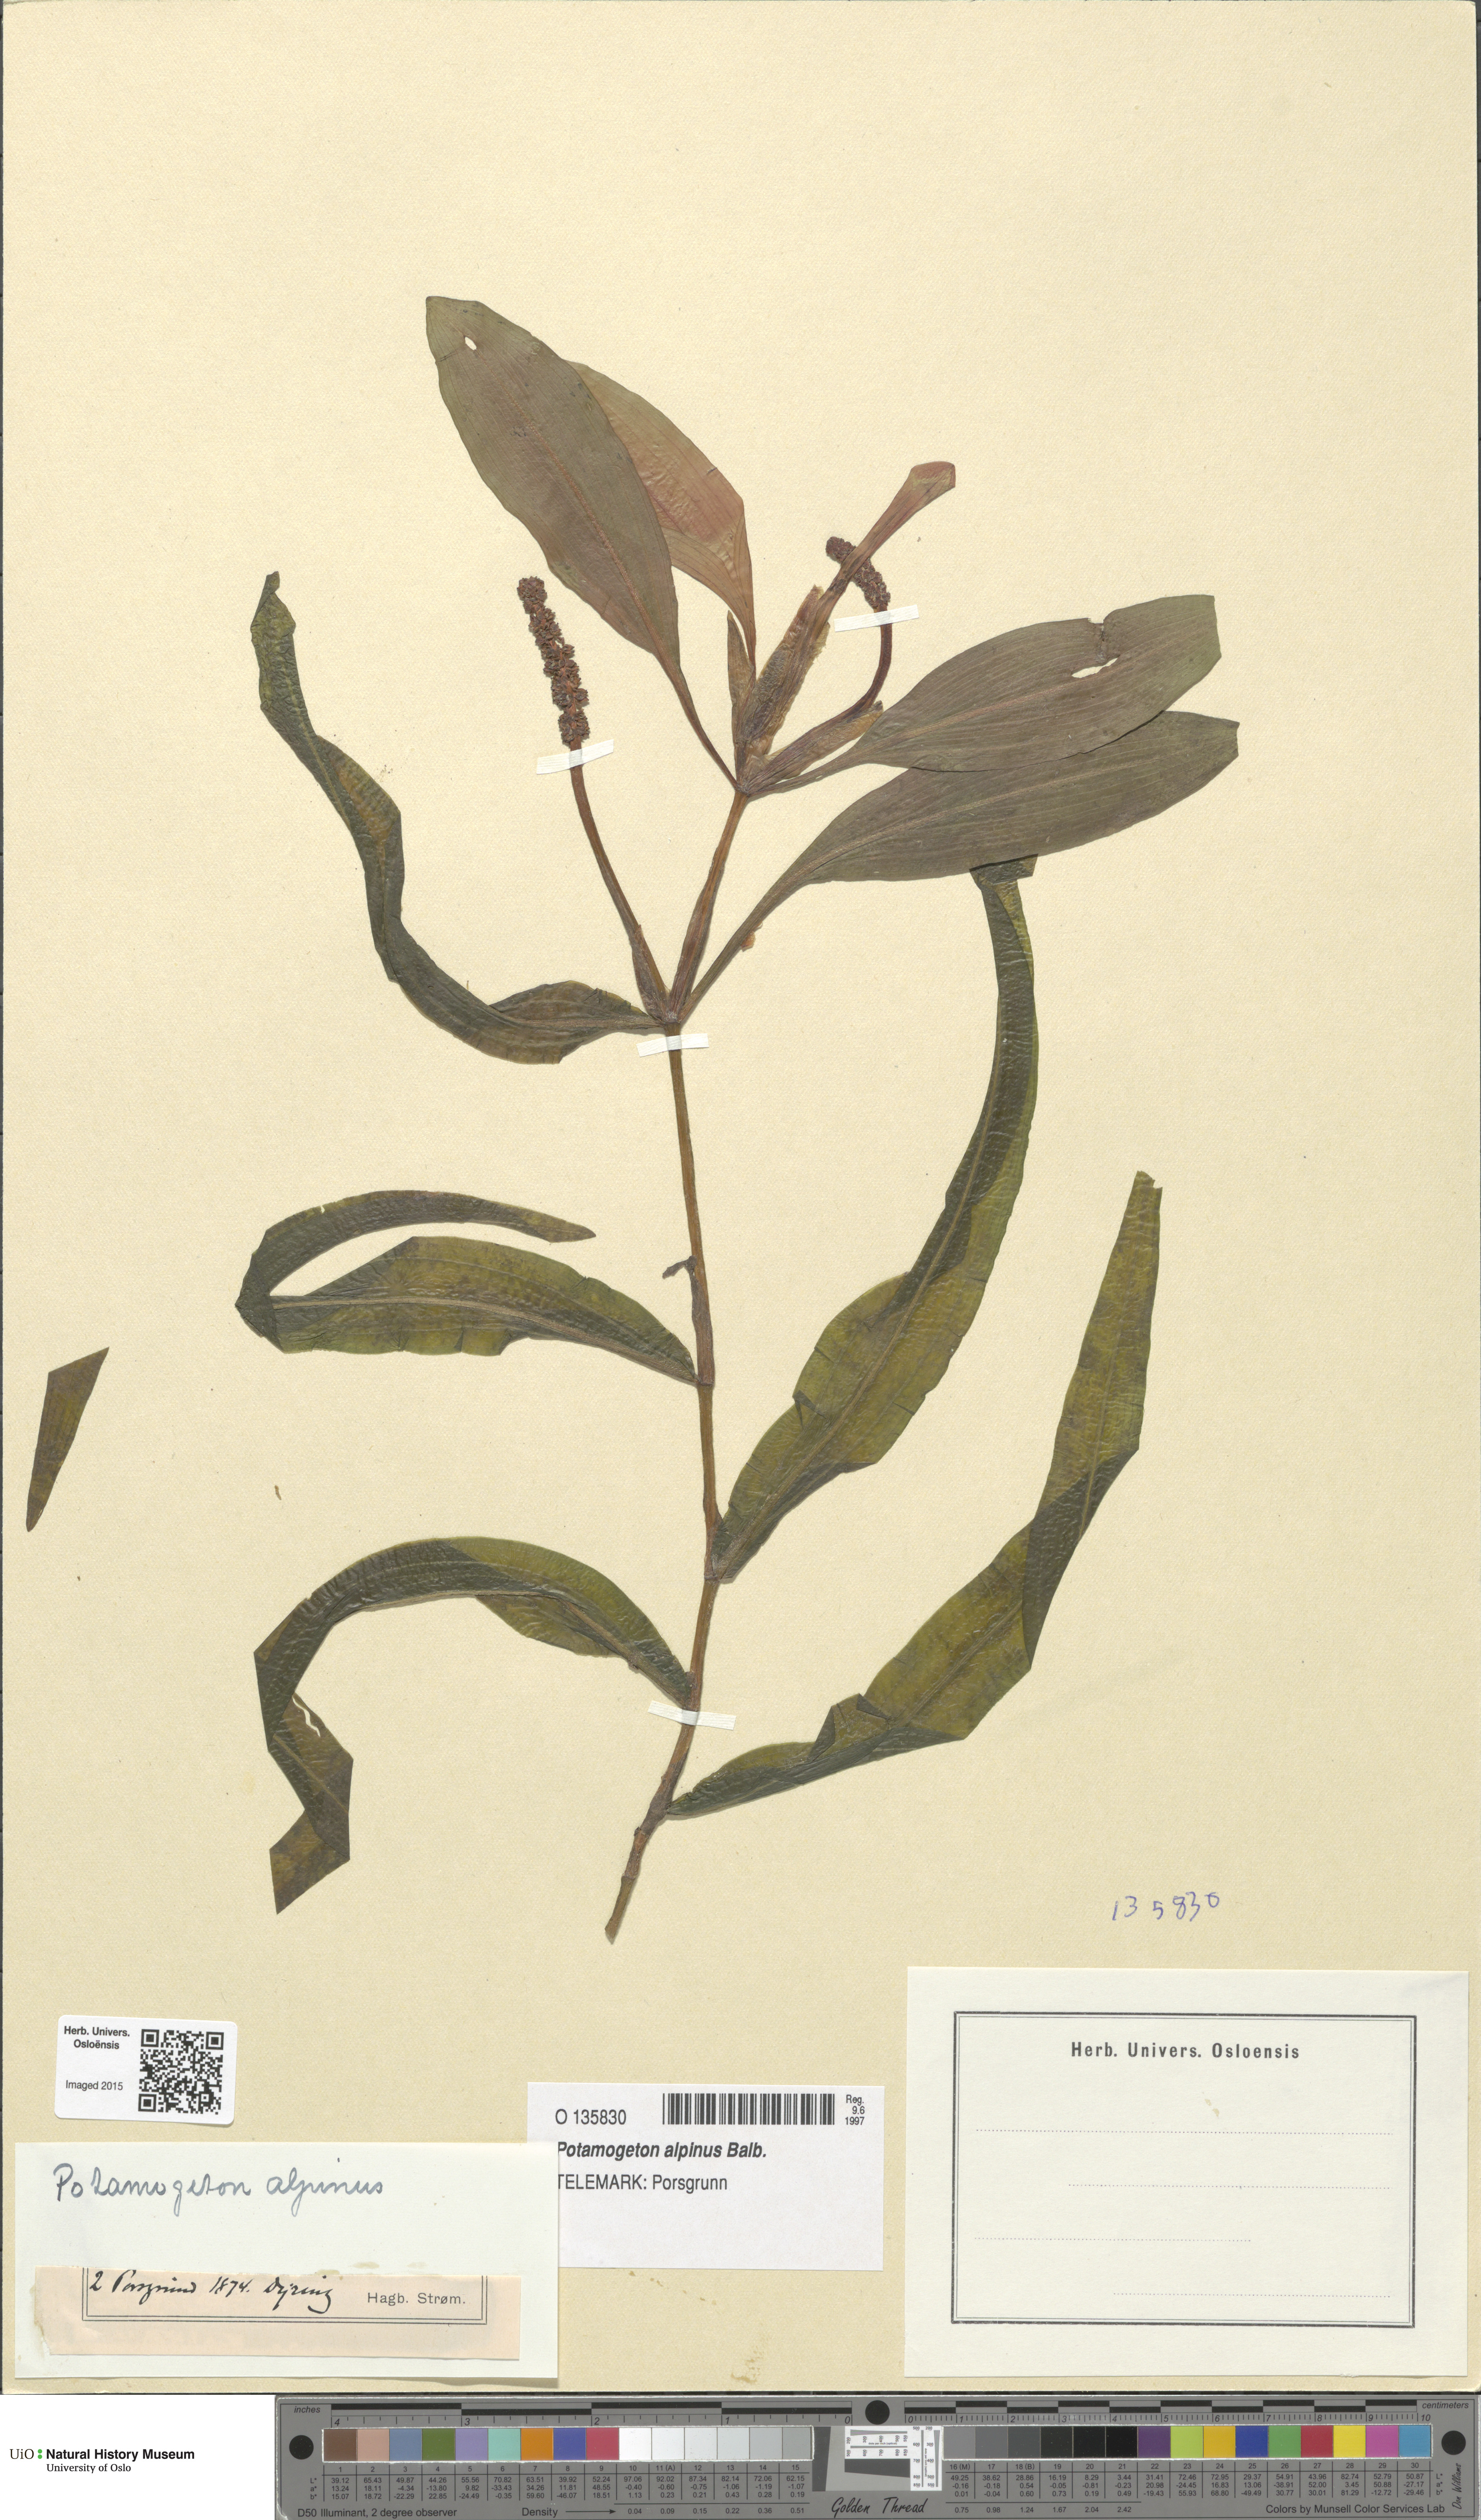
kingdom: Plantae
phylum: Tracheophyta
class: Liliopsida
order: Alismatales
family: Potamogetonaceae
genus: Potamogeton
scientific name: Potamogeton alpinus
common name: Red pondweed
